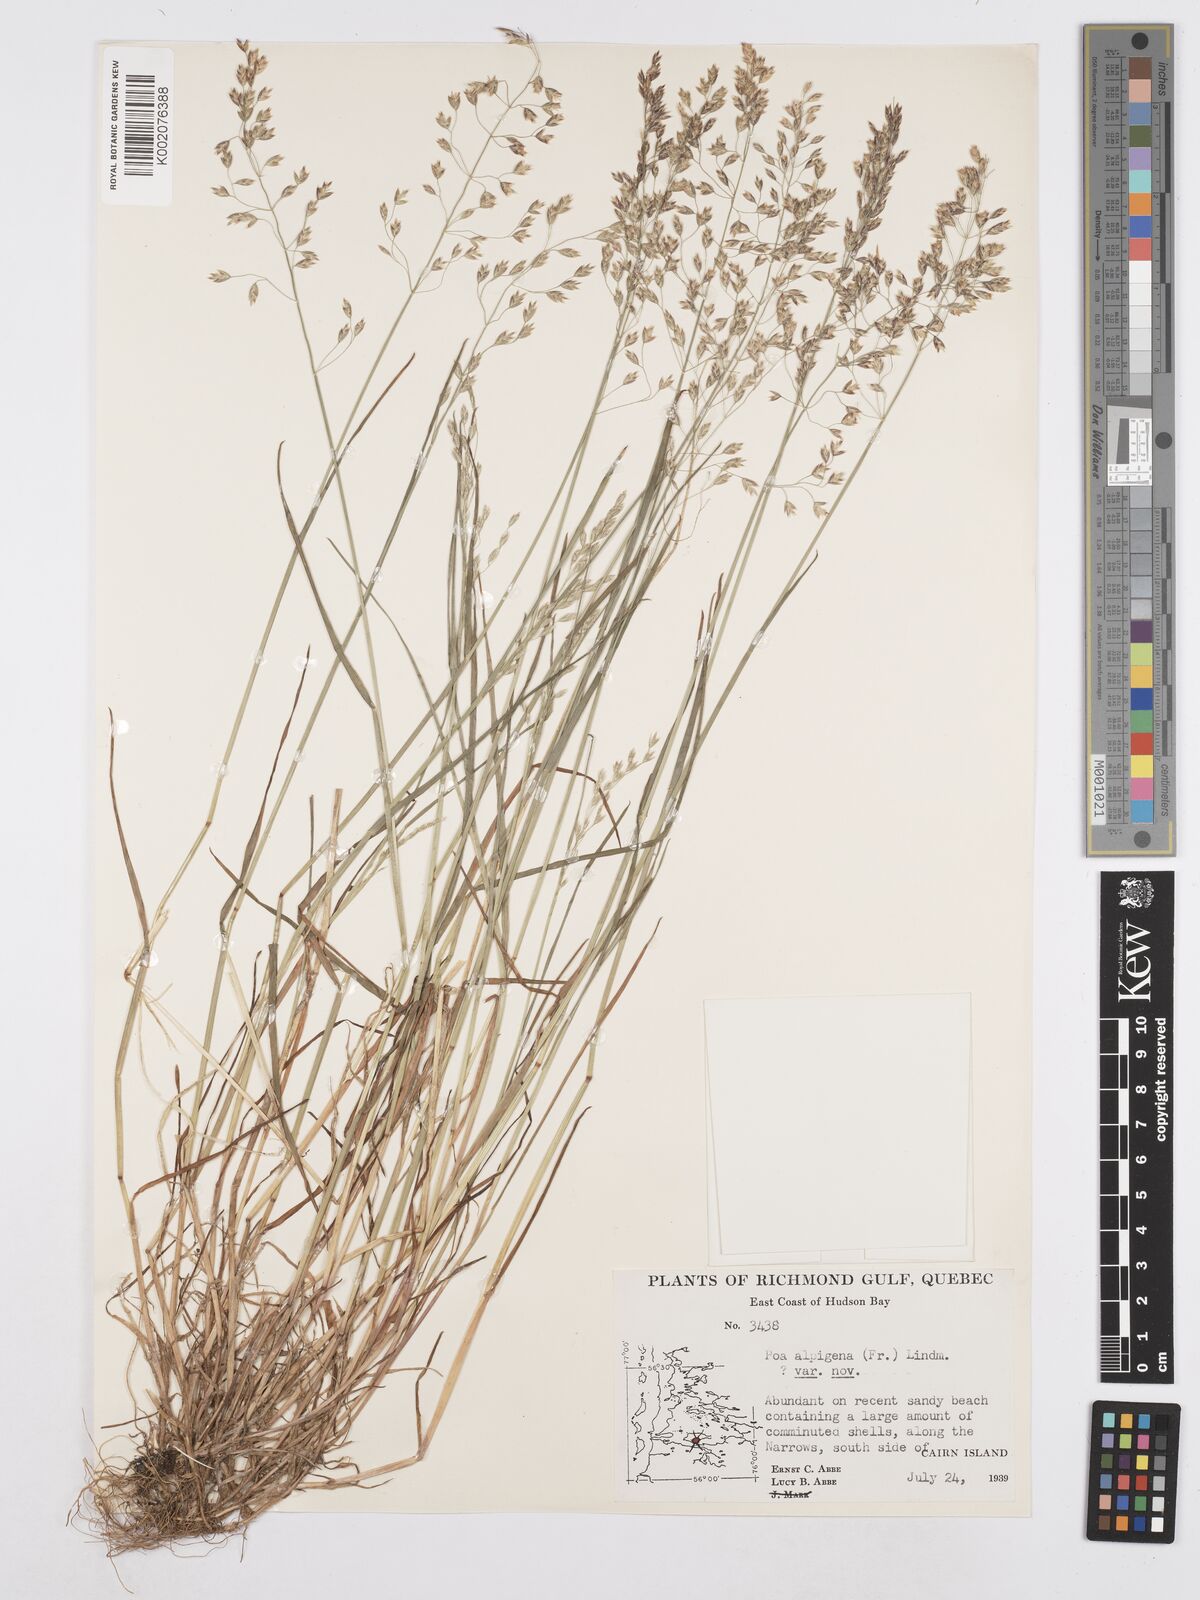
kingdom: Plantae
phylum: Tracheophyta
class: Liliopsida
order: Poales
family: Poaceae
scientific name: Poaceae
